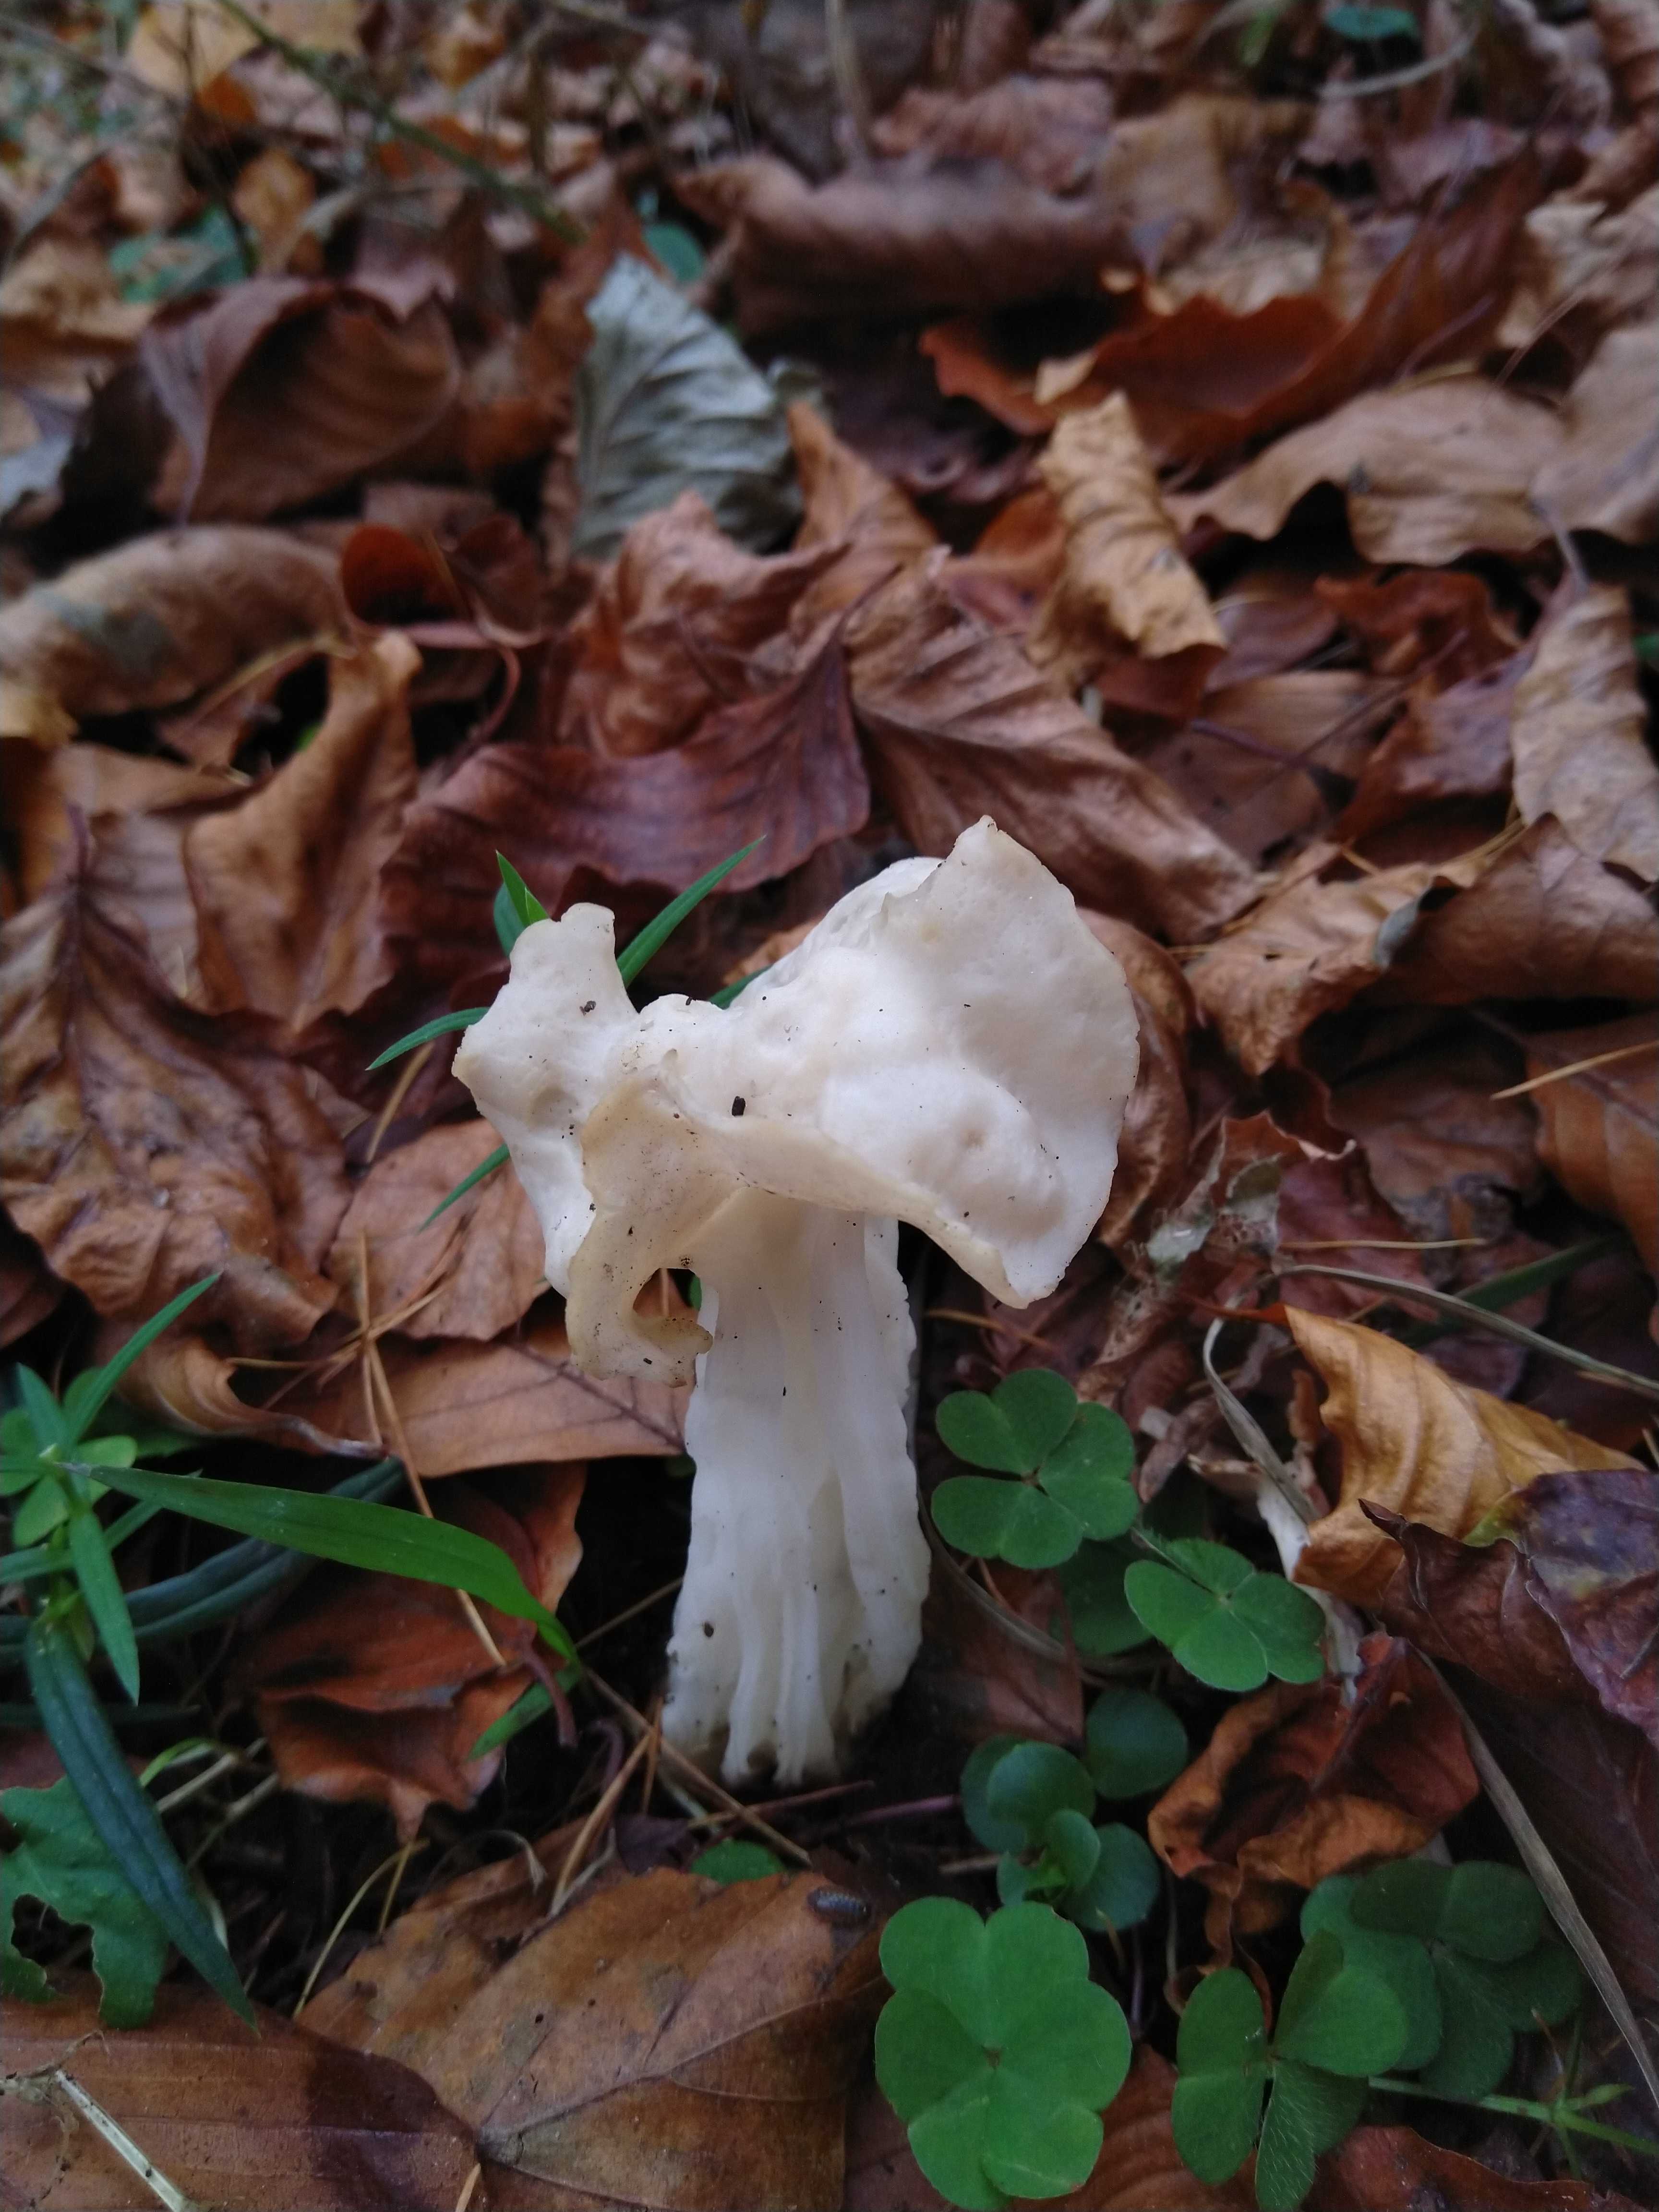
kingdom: Fungi
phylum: Ascomycota
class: Pezizomycetes
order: Pezizales
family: Helvellaceae
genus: Helvella
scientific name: Helvella crispa
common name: kruset foldhat
